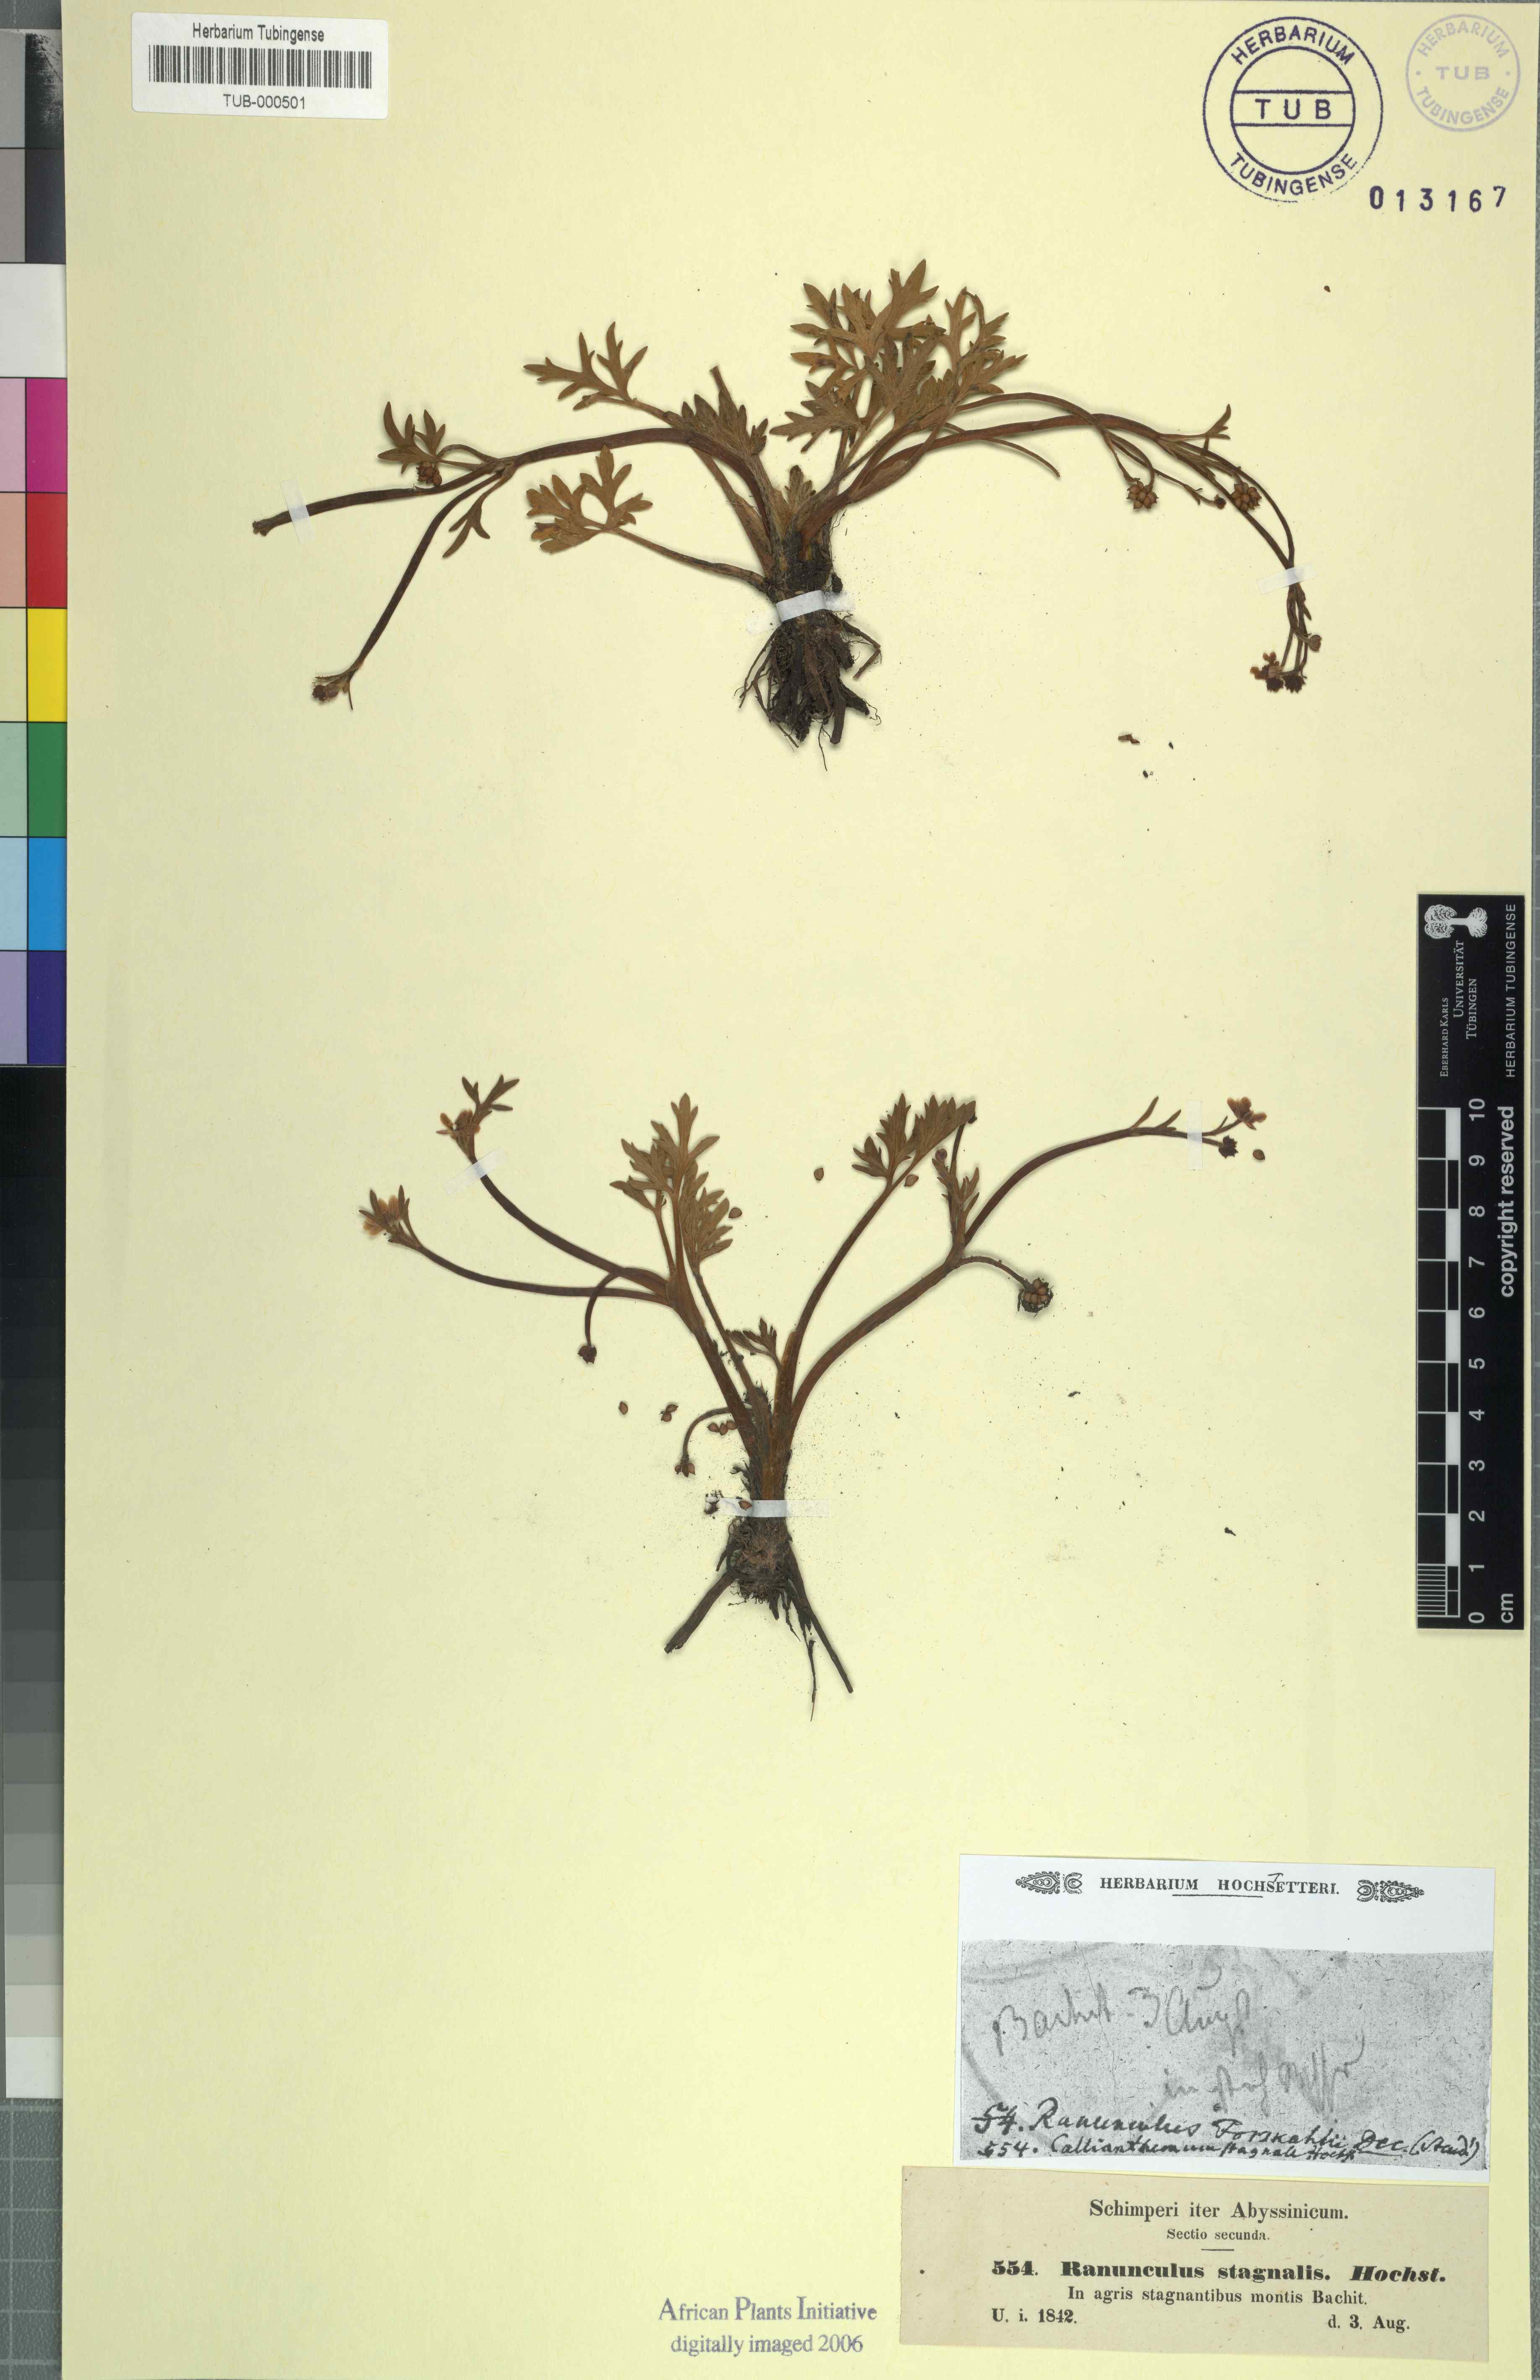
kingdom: Plantae
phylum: Tracheophyta
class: Magnoliopsida
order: Ranunculales
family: Ranunculaceae
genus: Ranunculus
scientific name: Ranunculus simensis
